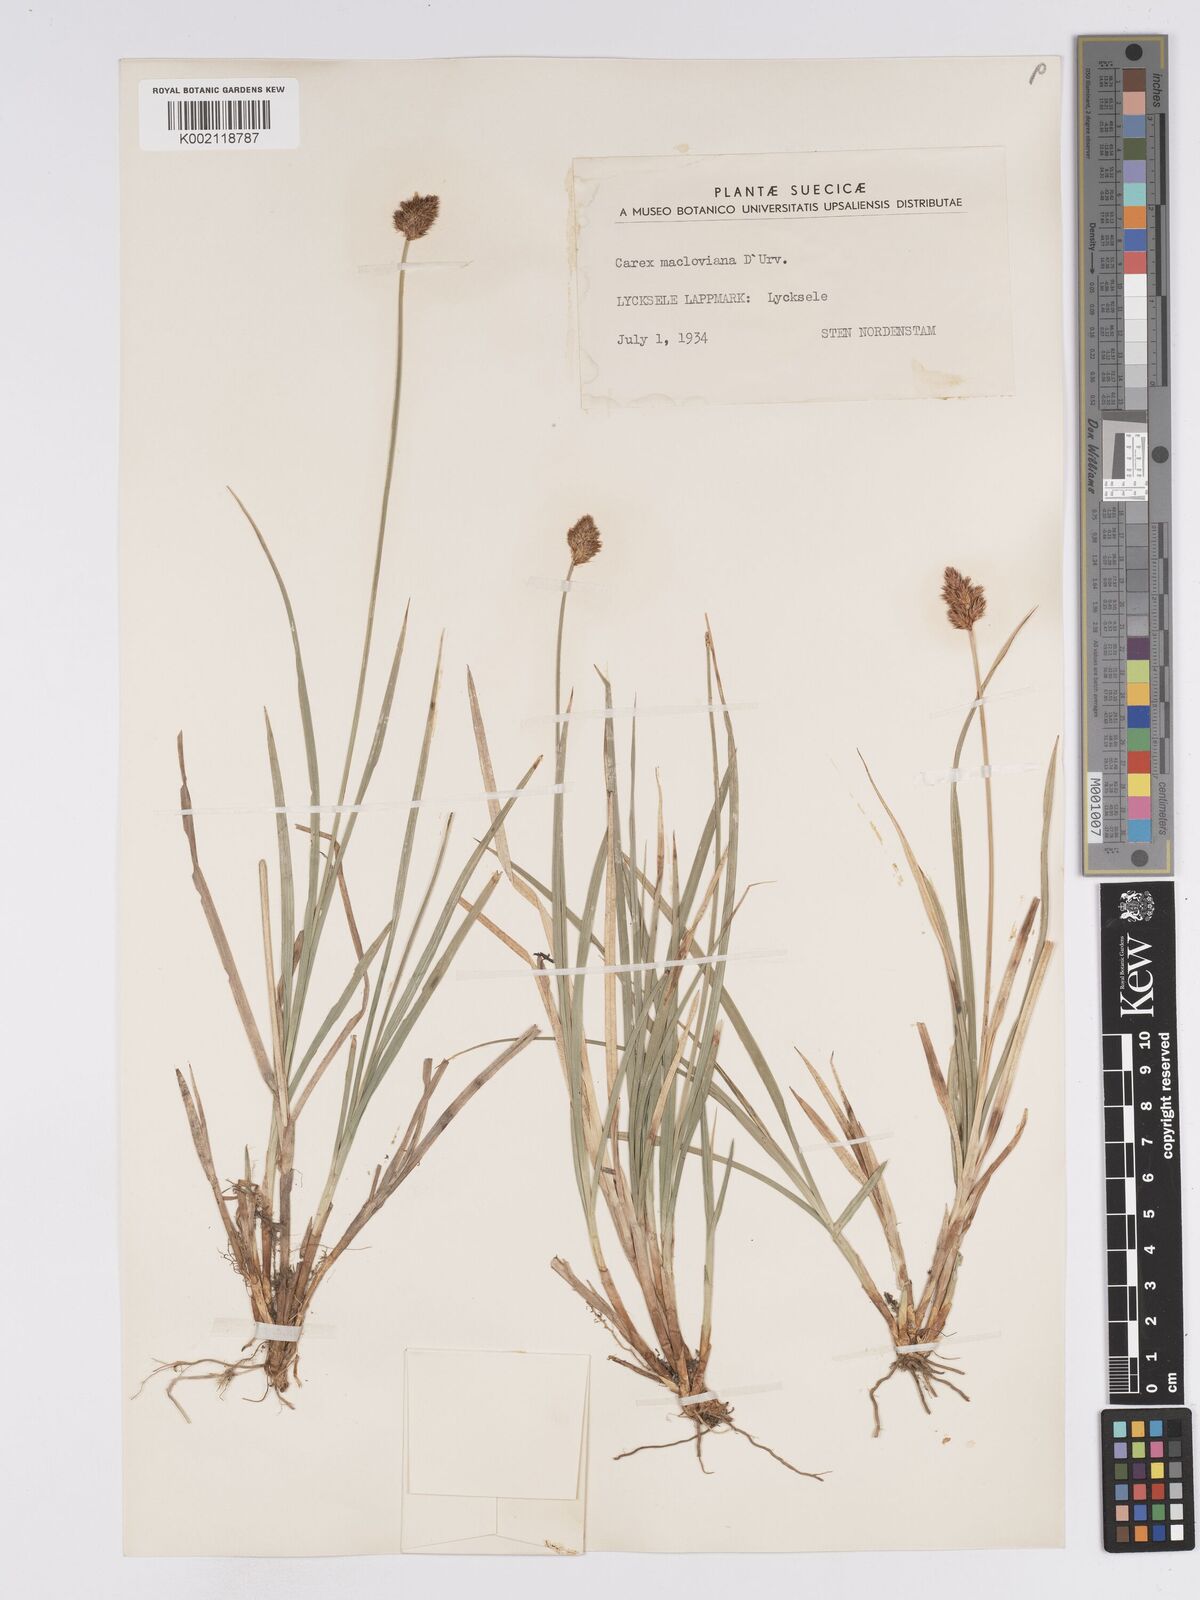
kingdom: Plantae
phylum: Tracheophyta
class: Liliopsida
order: Poales
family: Cyperaceae
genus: Carex
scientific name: Carex macloviana
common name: Falkland island sedge
